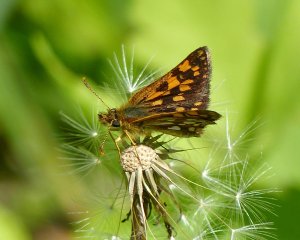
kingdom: Animalia
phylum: Arthropoda
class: Insecta
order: Lepidoptera
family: Hesperiidae
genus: Carterocephalus
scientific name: Carterocephalus palaemon
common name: Chequered Skipper
